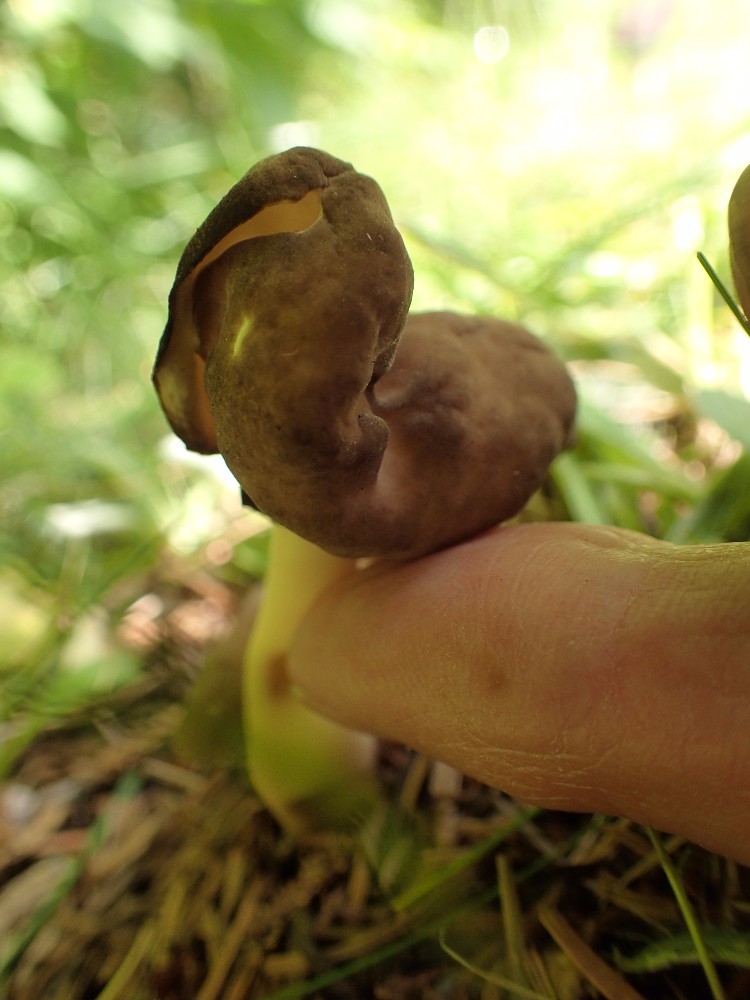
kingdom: Fungi
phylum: Ascomycota
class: Pezizomycetes
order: Pezizales
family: Helvellaceae
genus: Helvella
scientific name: Helvella elastica
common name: elastik-foldhat
